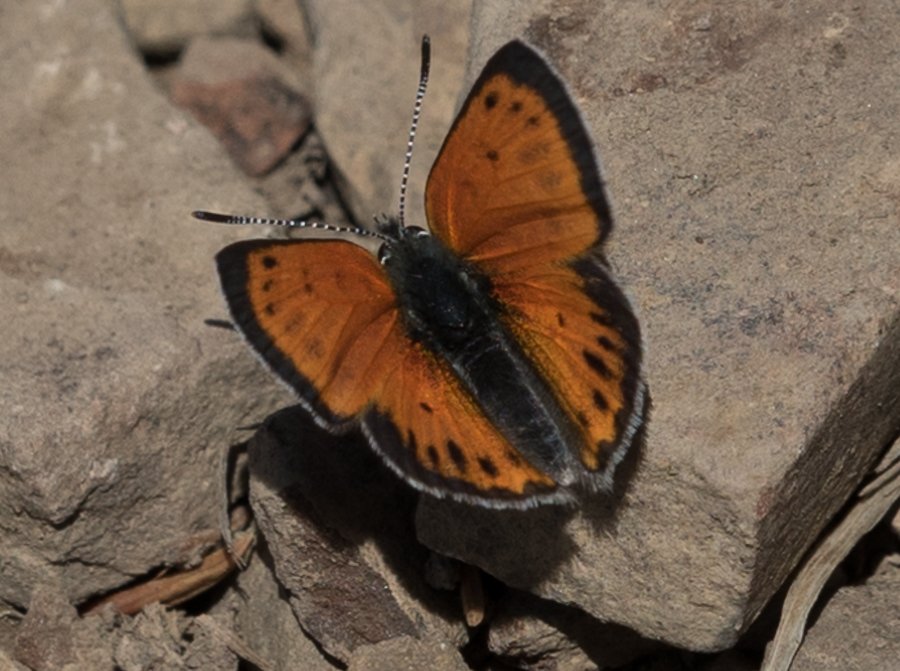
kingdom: Animalia
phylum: Arthropoda
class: Insecta
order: Lepidoptera
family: Lycaenidae
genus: Lycaena
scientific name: Lycaena cupreus
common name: Lustrous Copper
